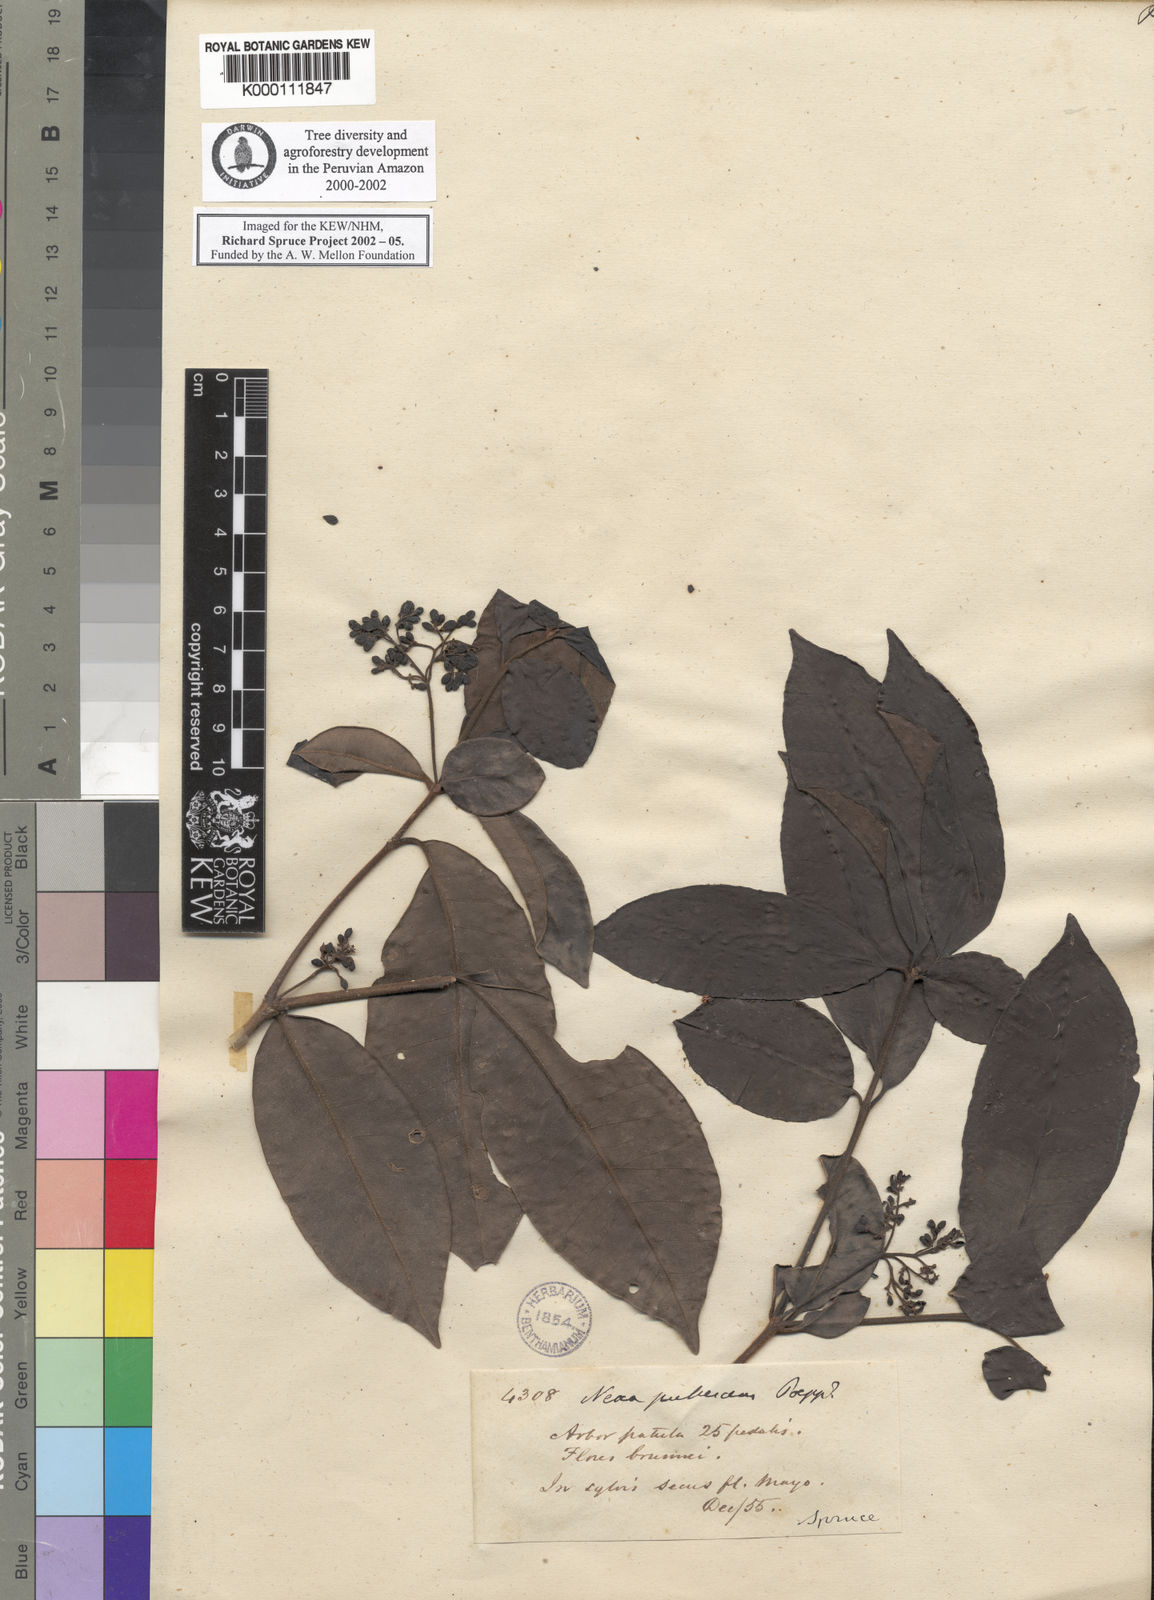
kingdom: Plantae
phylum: Tracheophyta
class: Magnoliopsida
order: Caryophyllales
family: Nyctaginaceae
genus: Neea
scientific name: Neea
